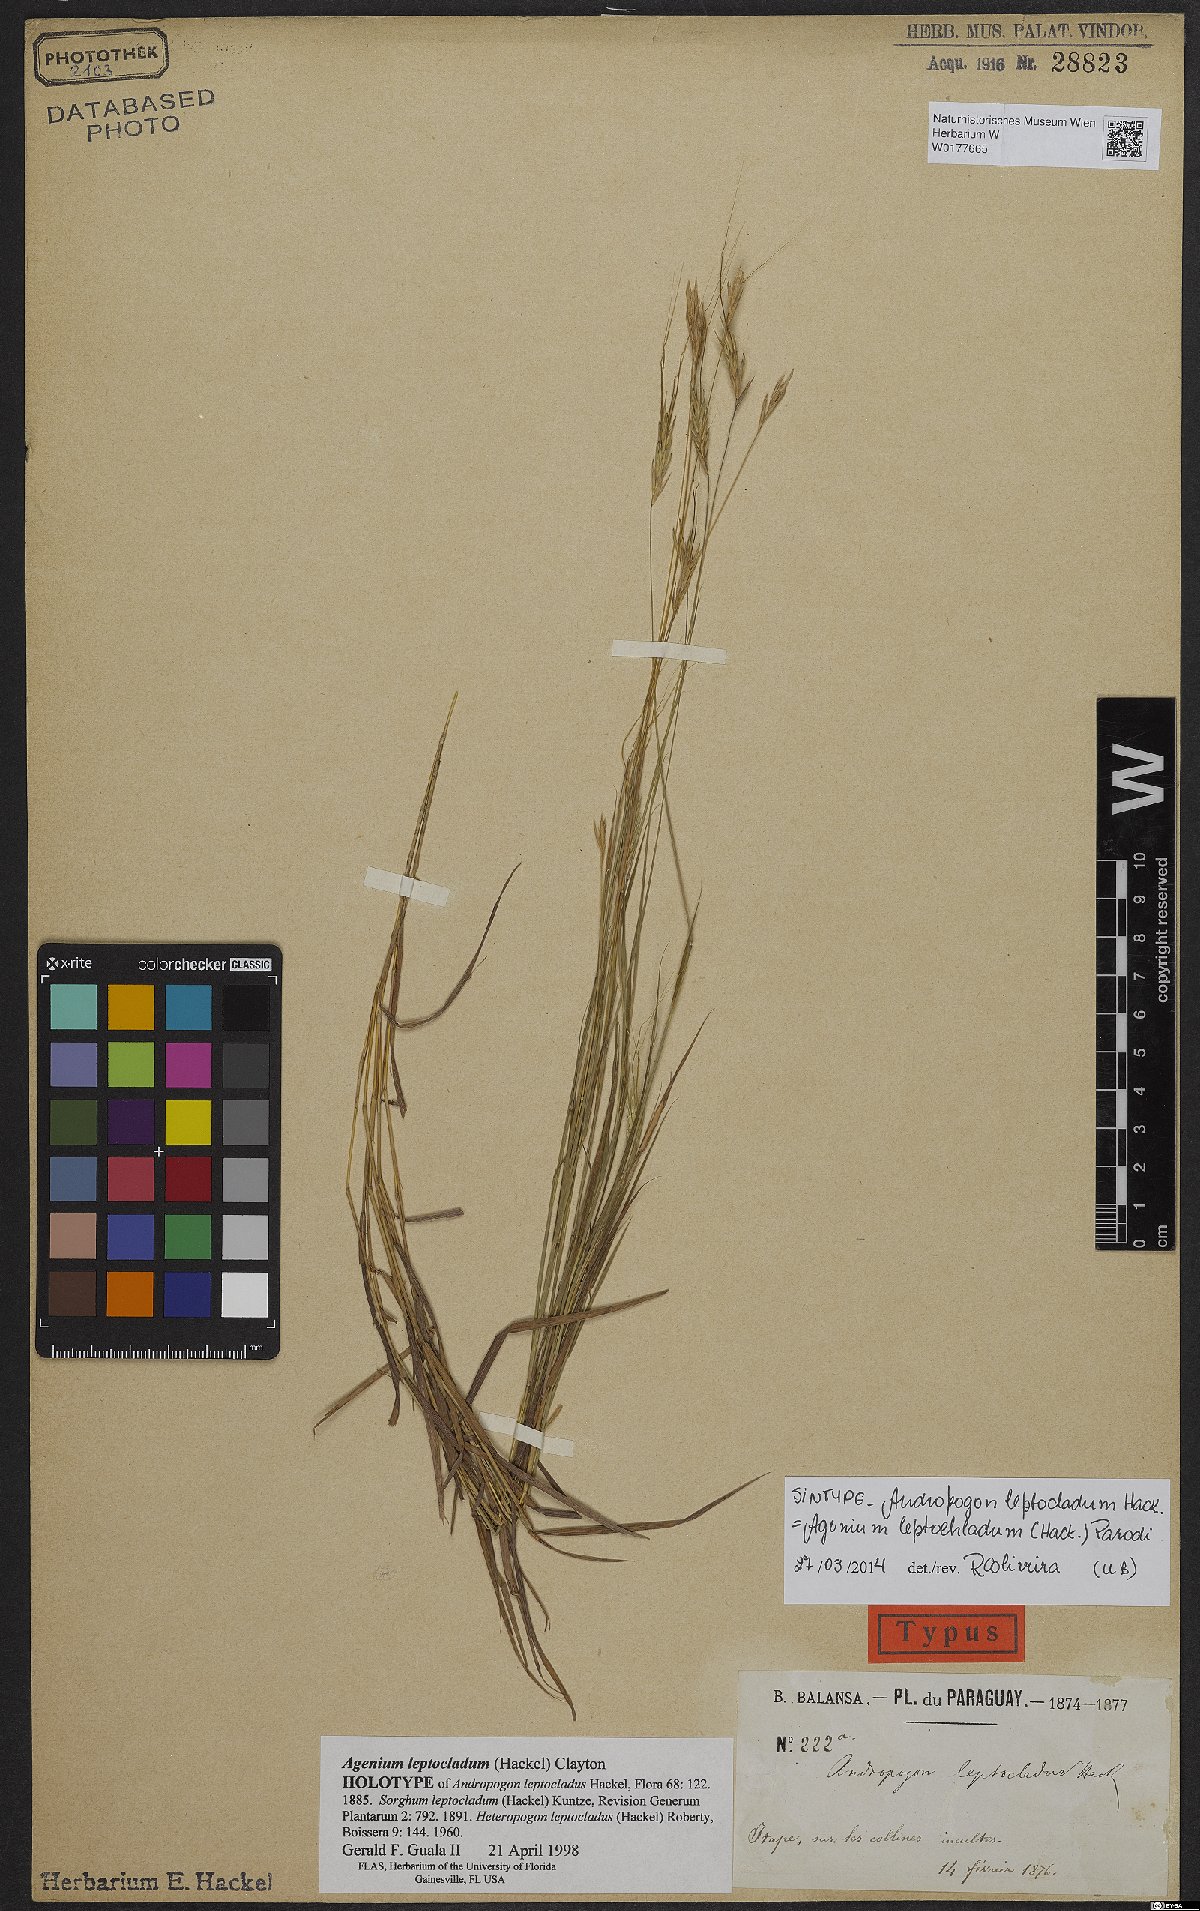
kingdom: Plantae
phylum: Tracheophyta
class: Liliopsida
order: Poales
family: Poaceae
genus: Agenium
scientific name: Agenium leptocladum
